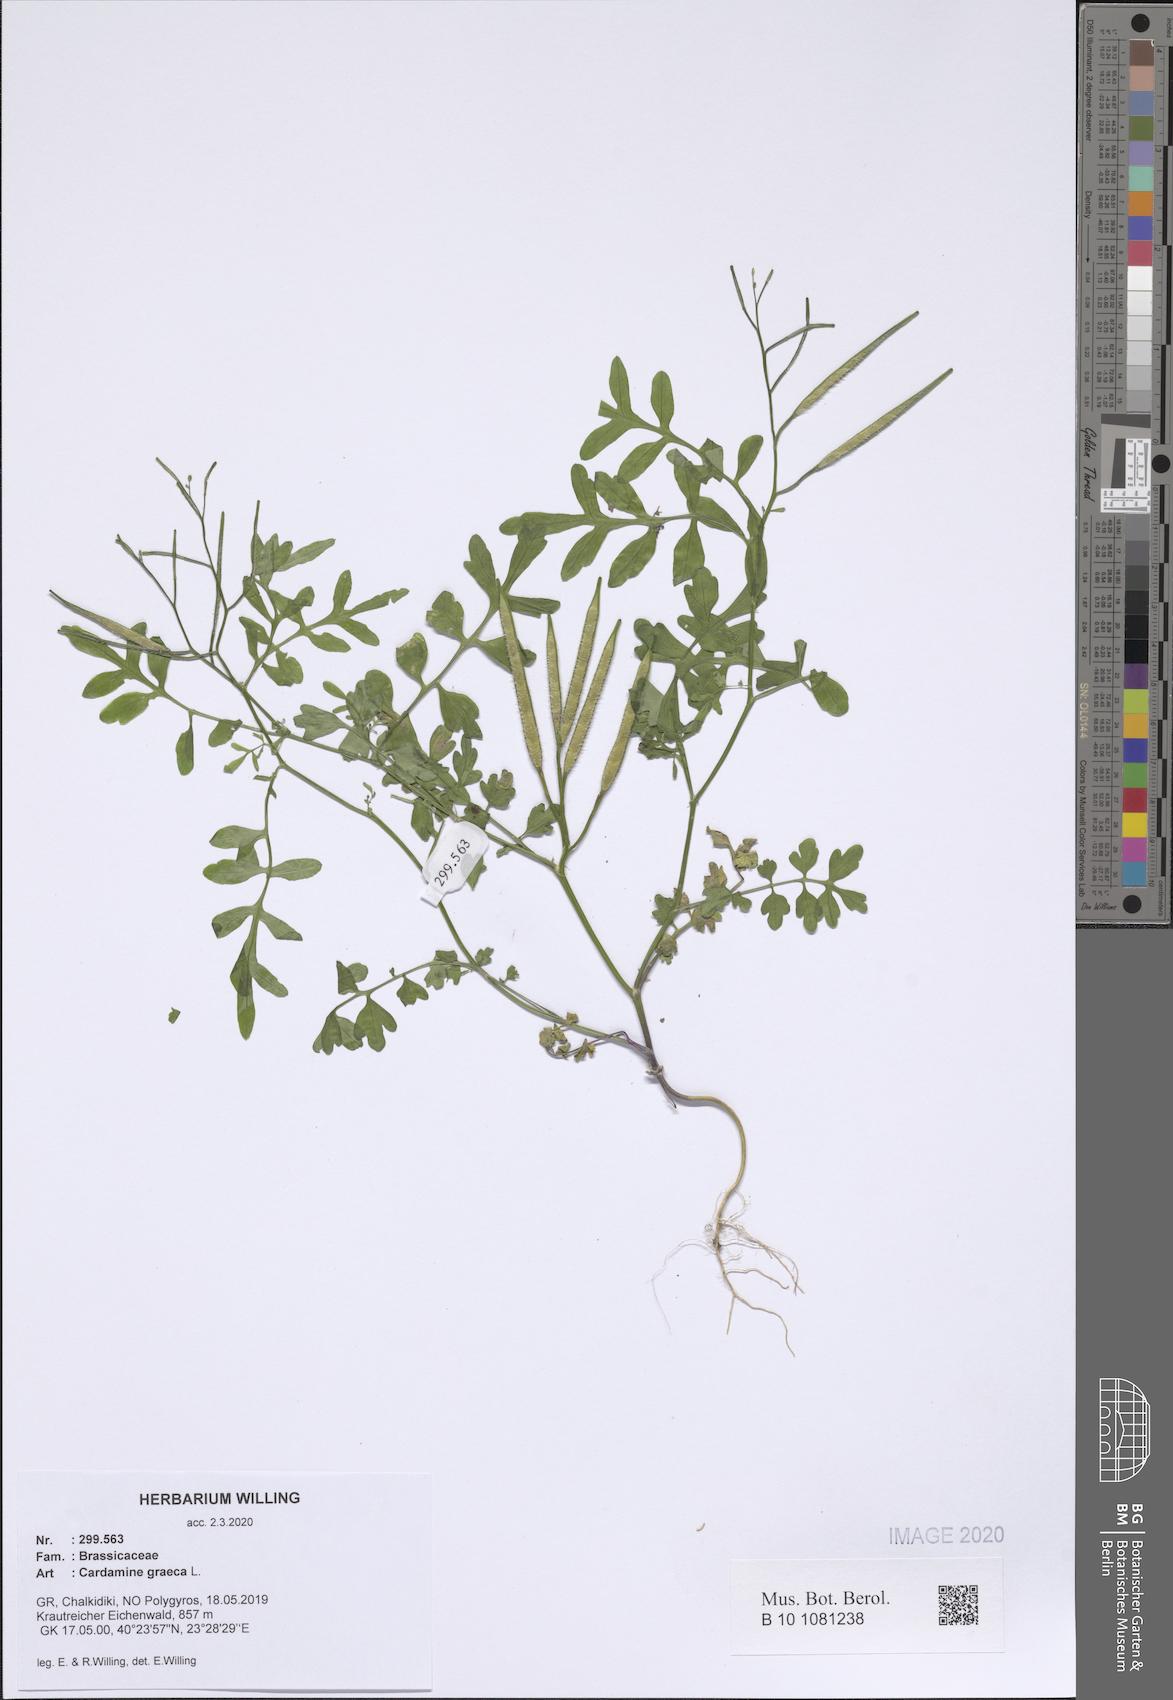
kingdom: Plantae
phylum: Tracheophyta
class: Magnoliopsida
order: Brassicales
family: Brassicaceae
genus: Cardamine
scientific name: Cardamine graeca
